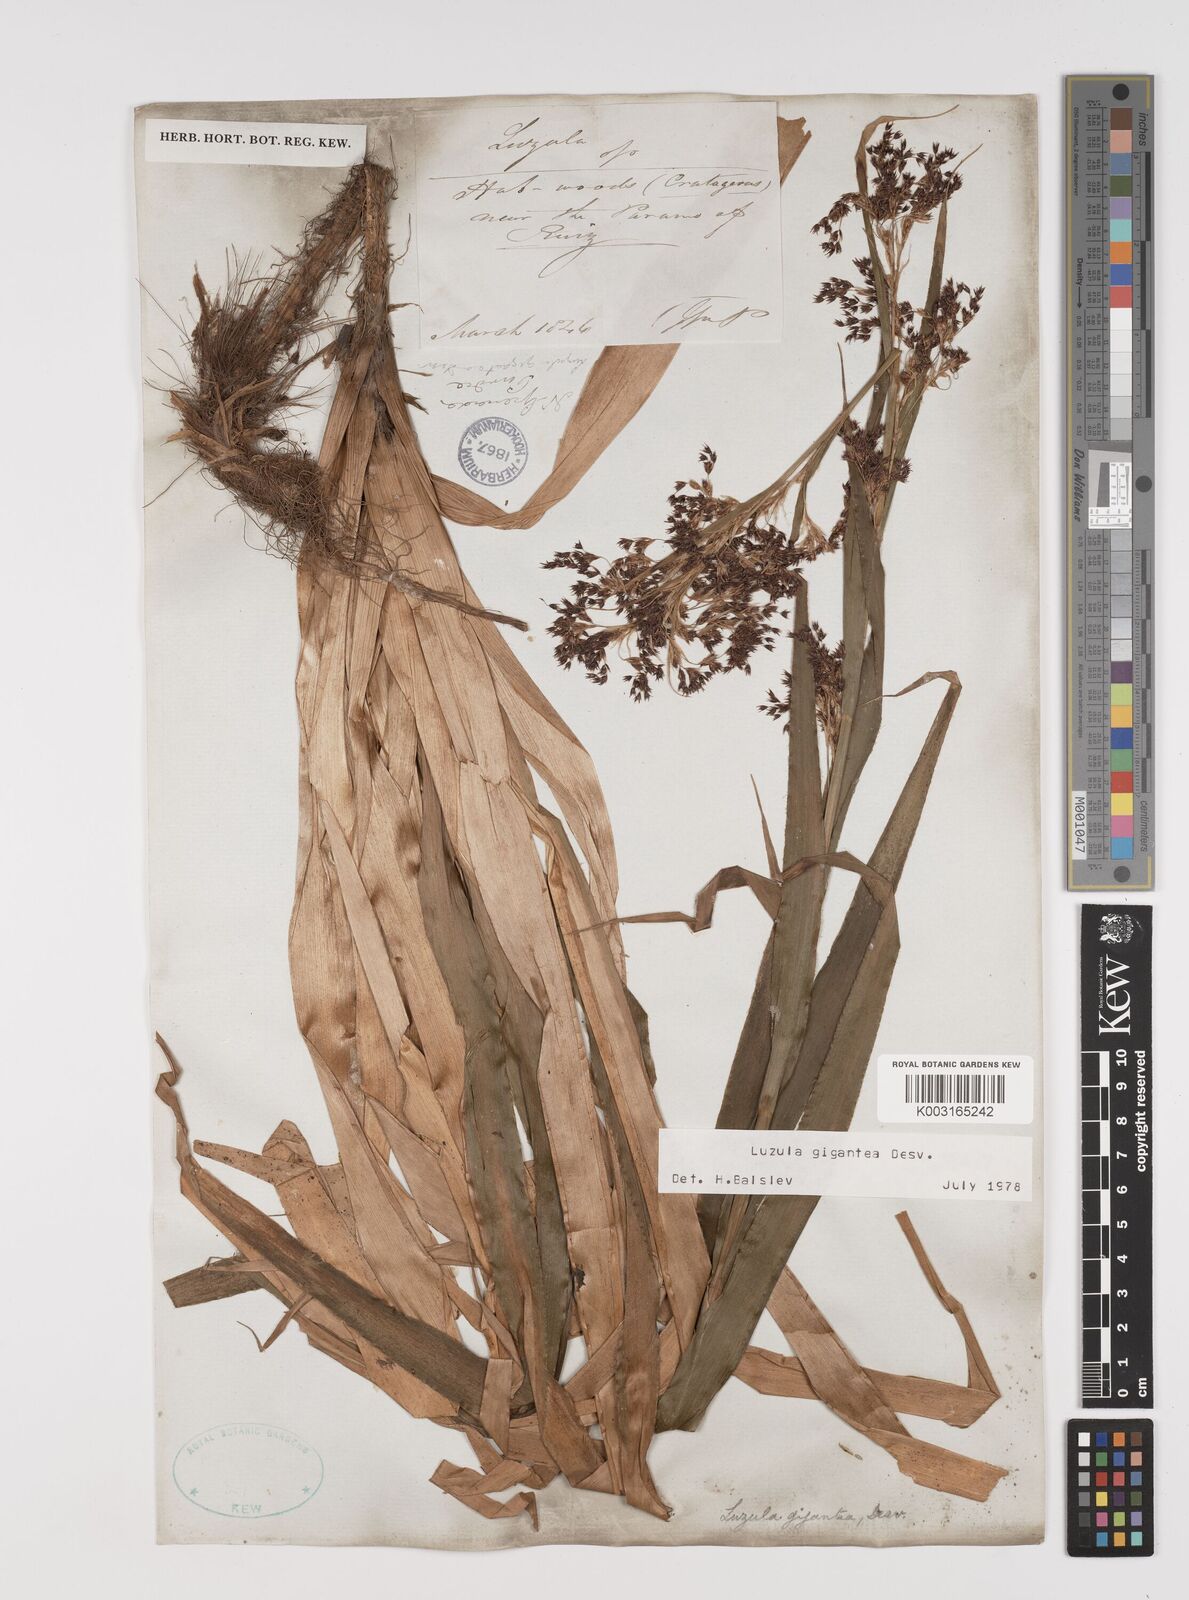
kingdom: Plantae
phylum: Tracheophyta
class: Liliopsida
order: Poales
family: Juncaceae
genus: Luzula
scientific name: Luzula gigantea
